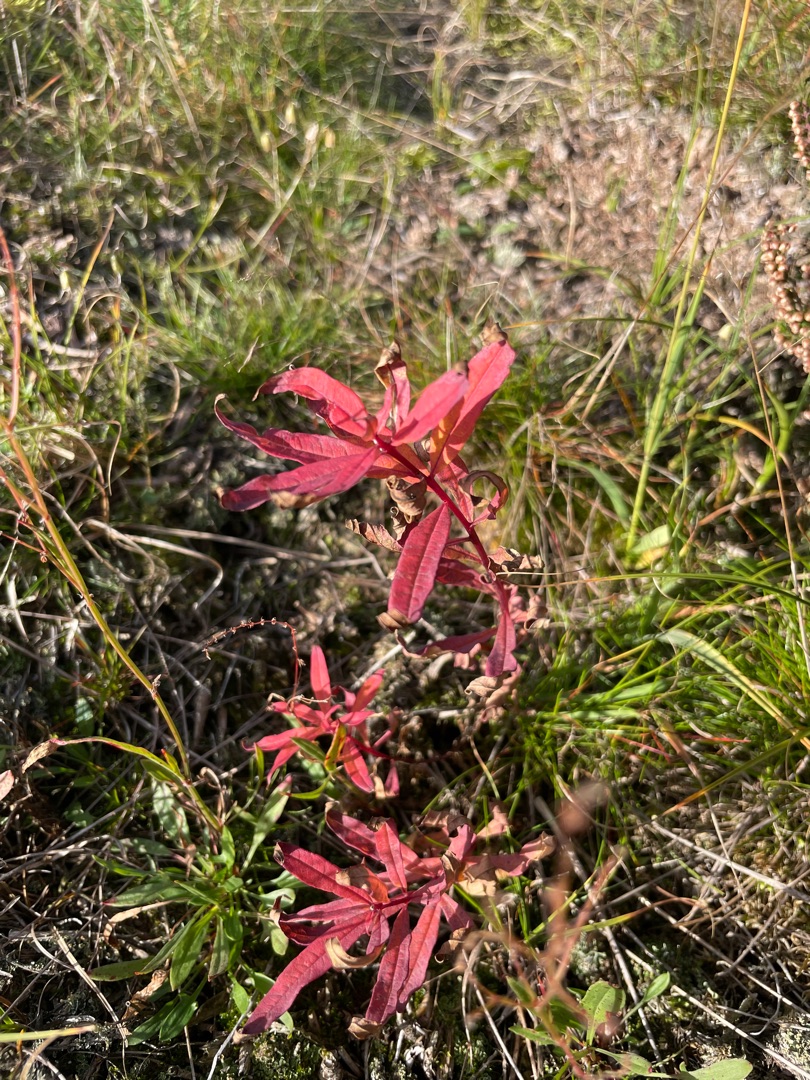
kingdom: Plantae
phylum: Tracheophyta
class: Magnoliopsida
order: Myrtales
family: Onagraceae
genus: Chamaenerion
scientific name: Chamaenerion angustifolium
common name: Gederams
